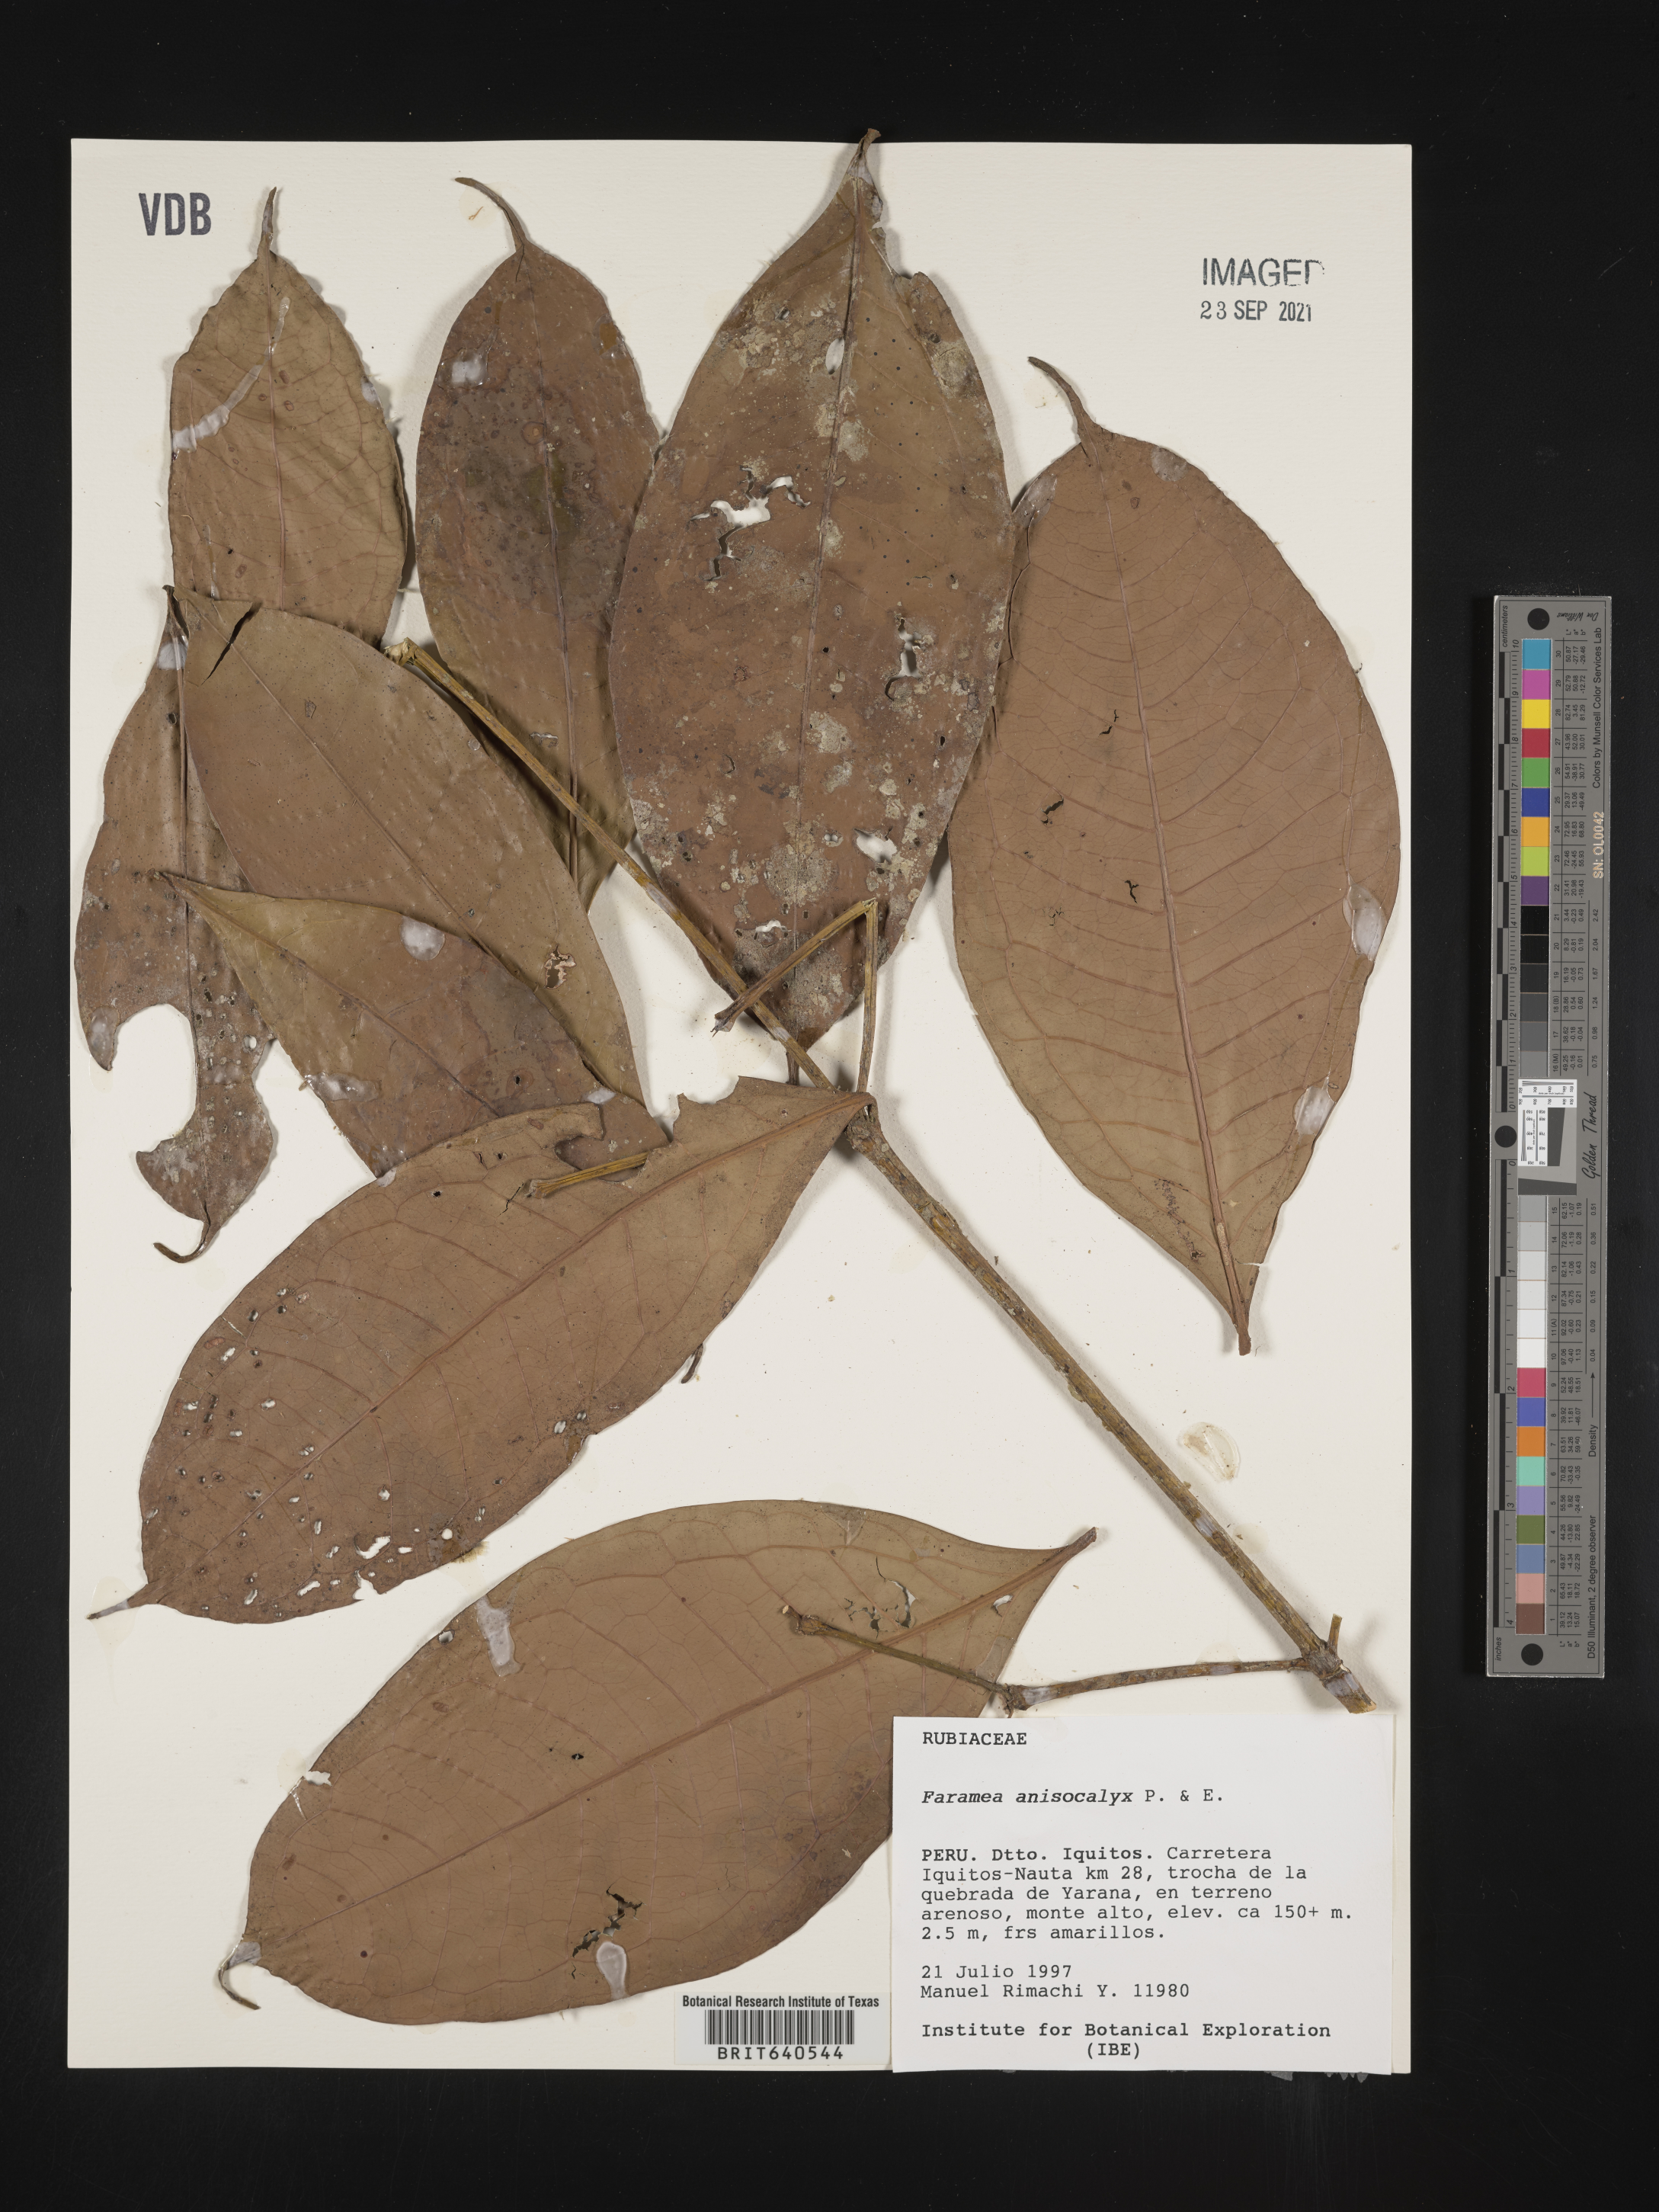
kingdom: Plantae
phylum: Tracheophyta
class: Magnoliopsida
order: Gentianales
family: Rubiaceae
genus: Faramea
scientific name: Faramea
